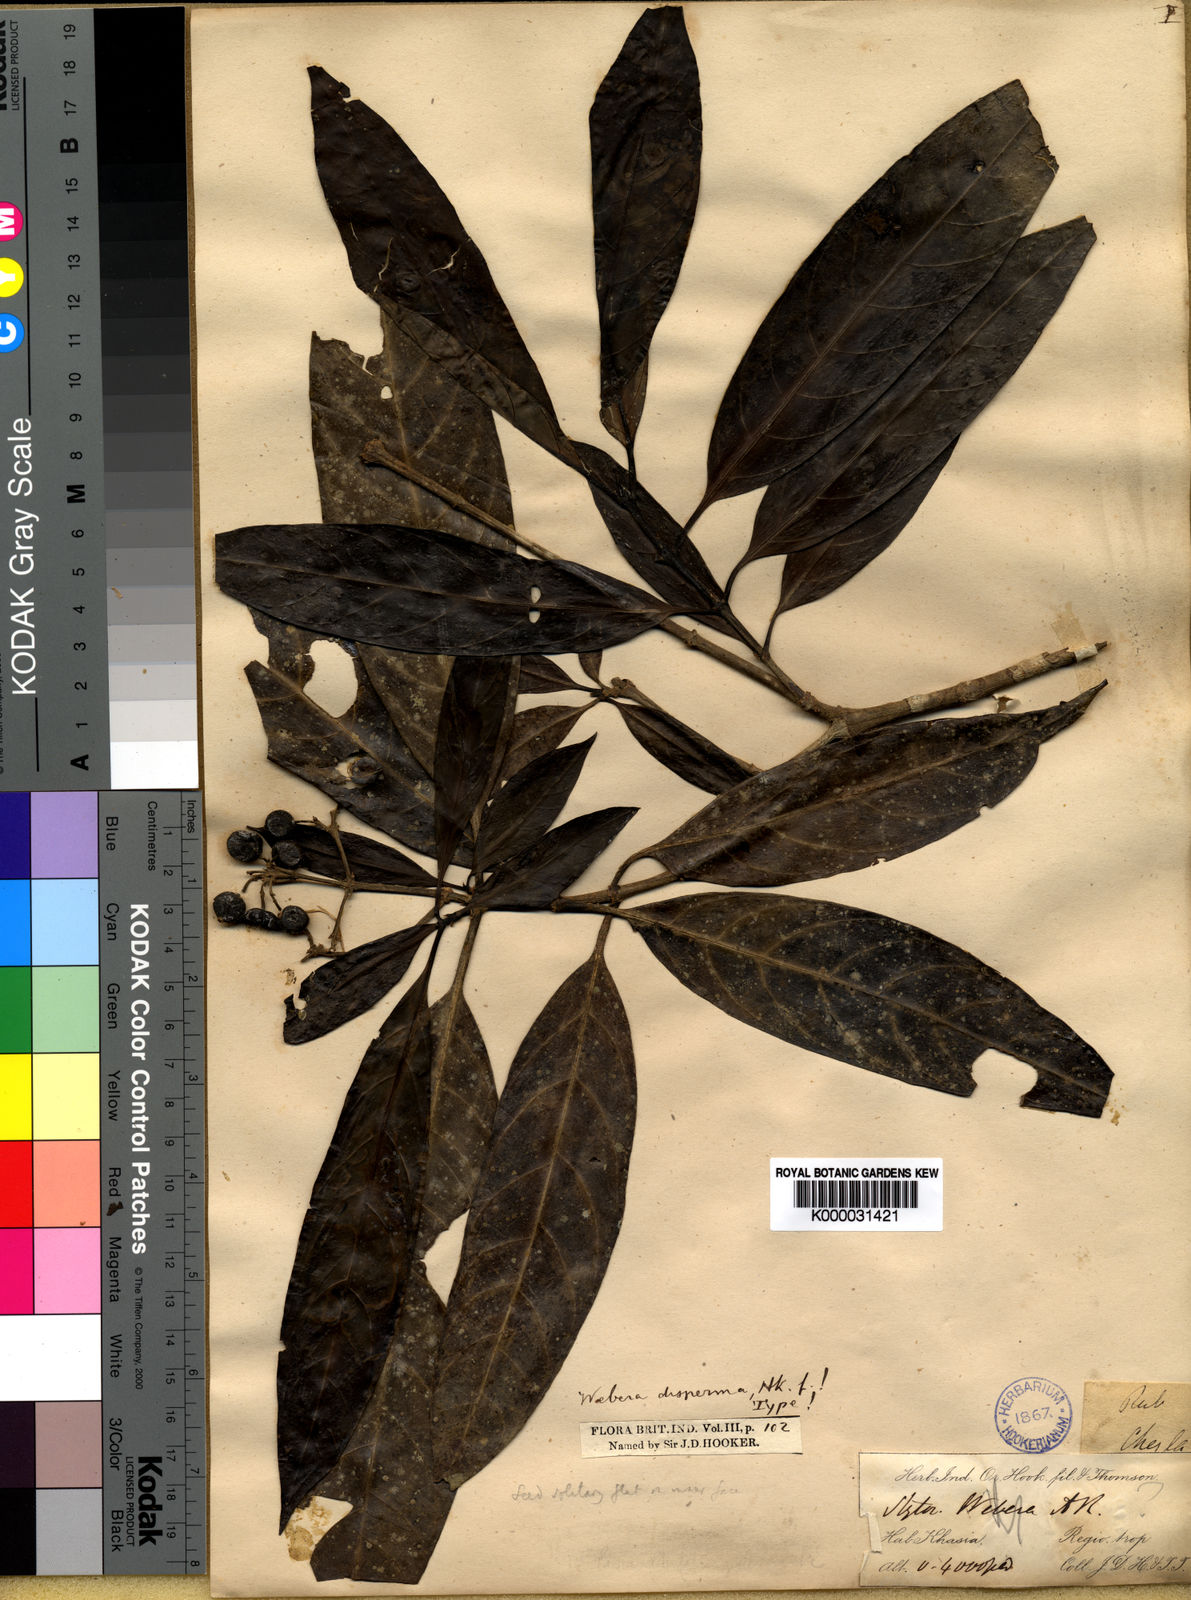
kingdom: Plantae
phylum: Tracheophyta
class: Magnoliopsida
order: Gentianales
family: Rubiaceae
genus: Tarenna
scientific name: Tarenna disperma
